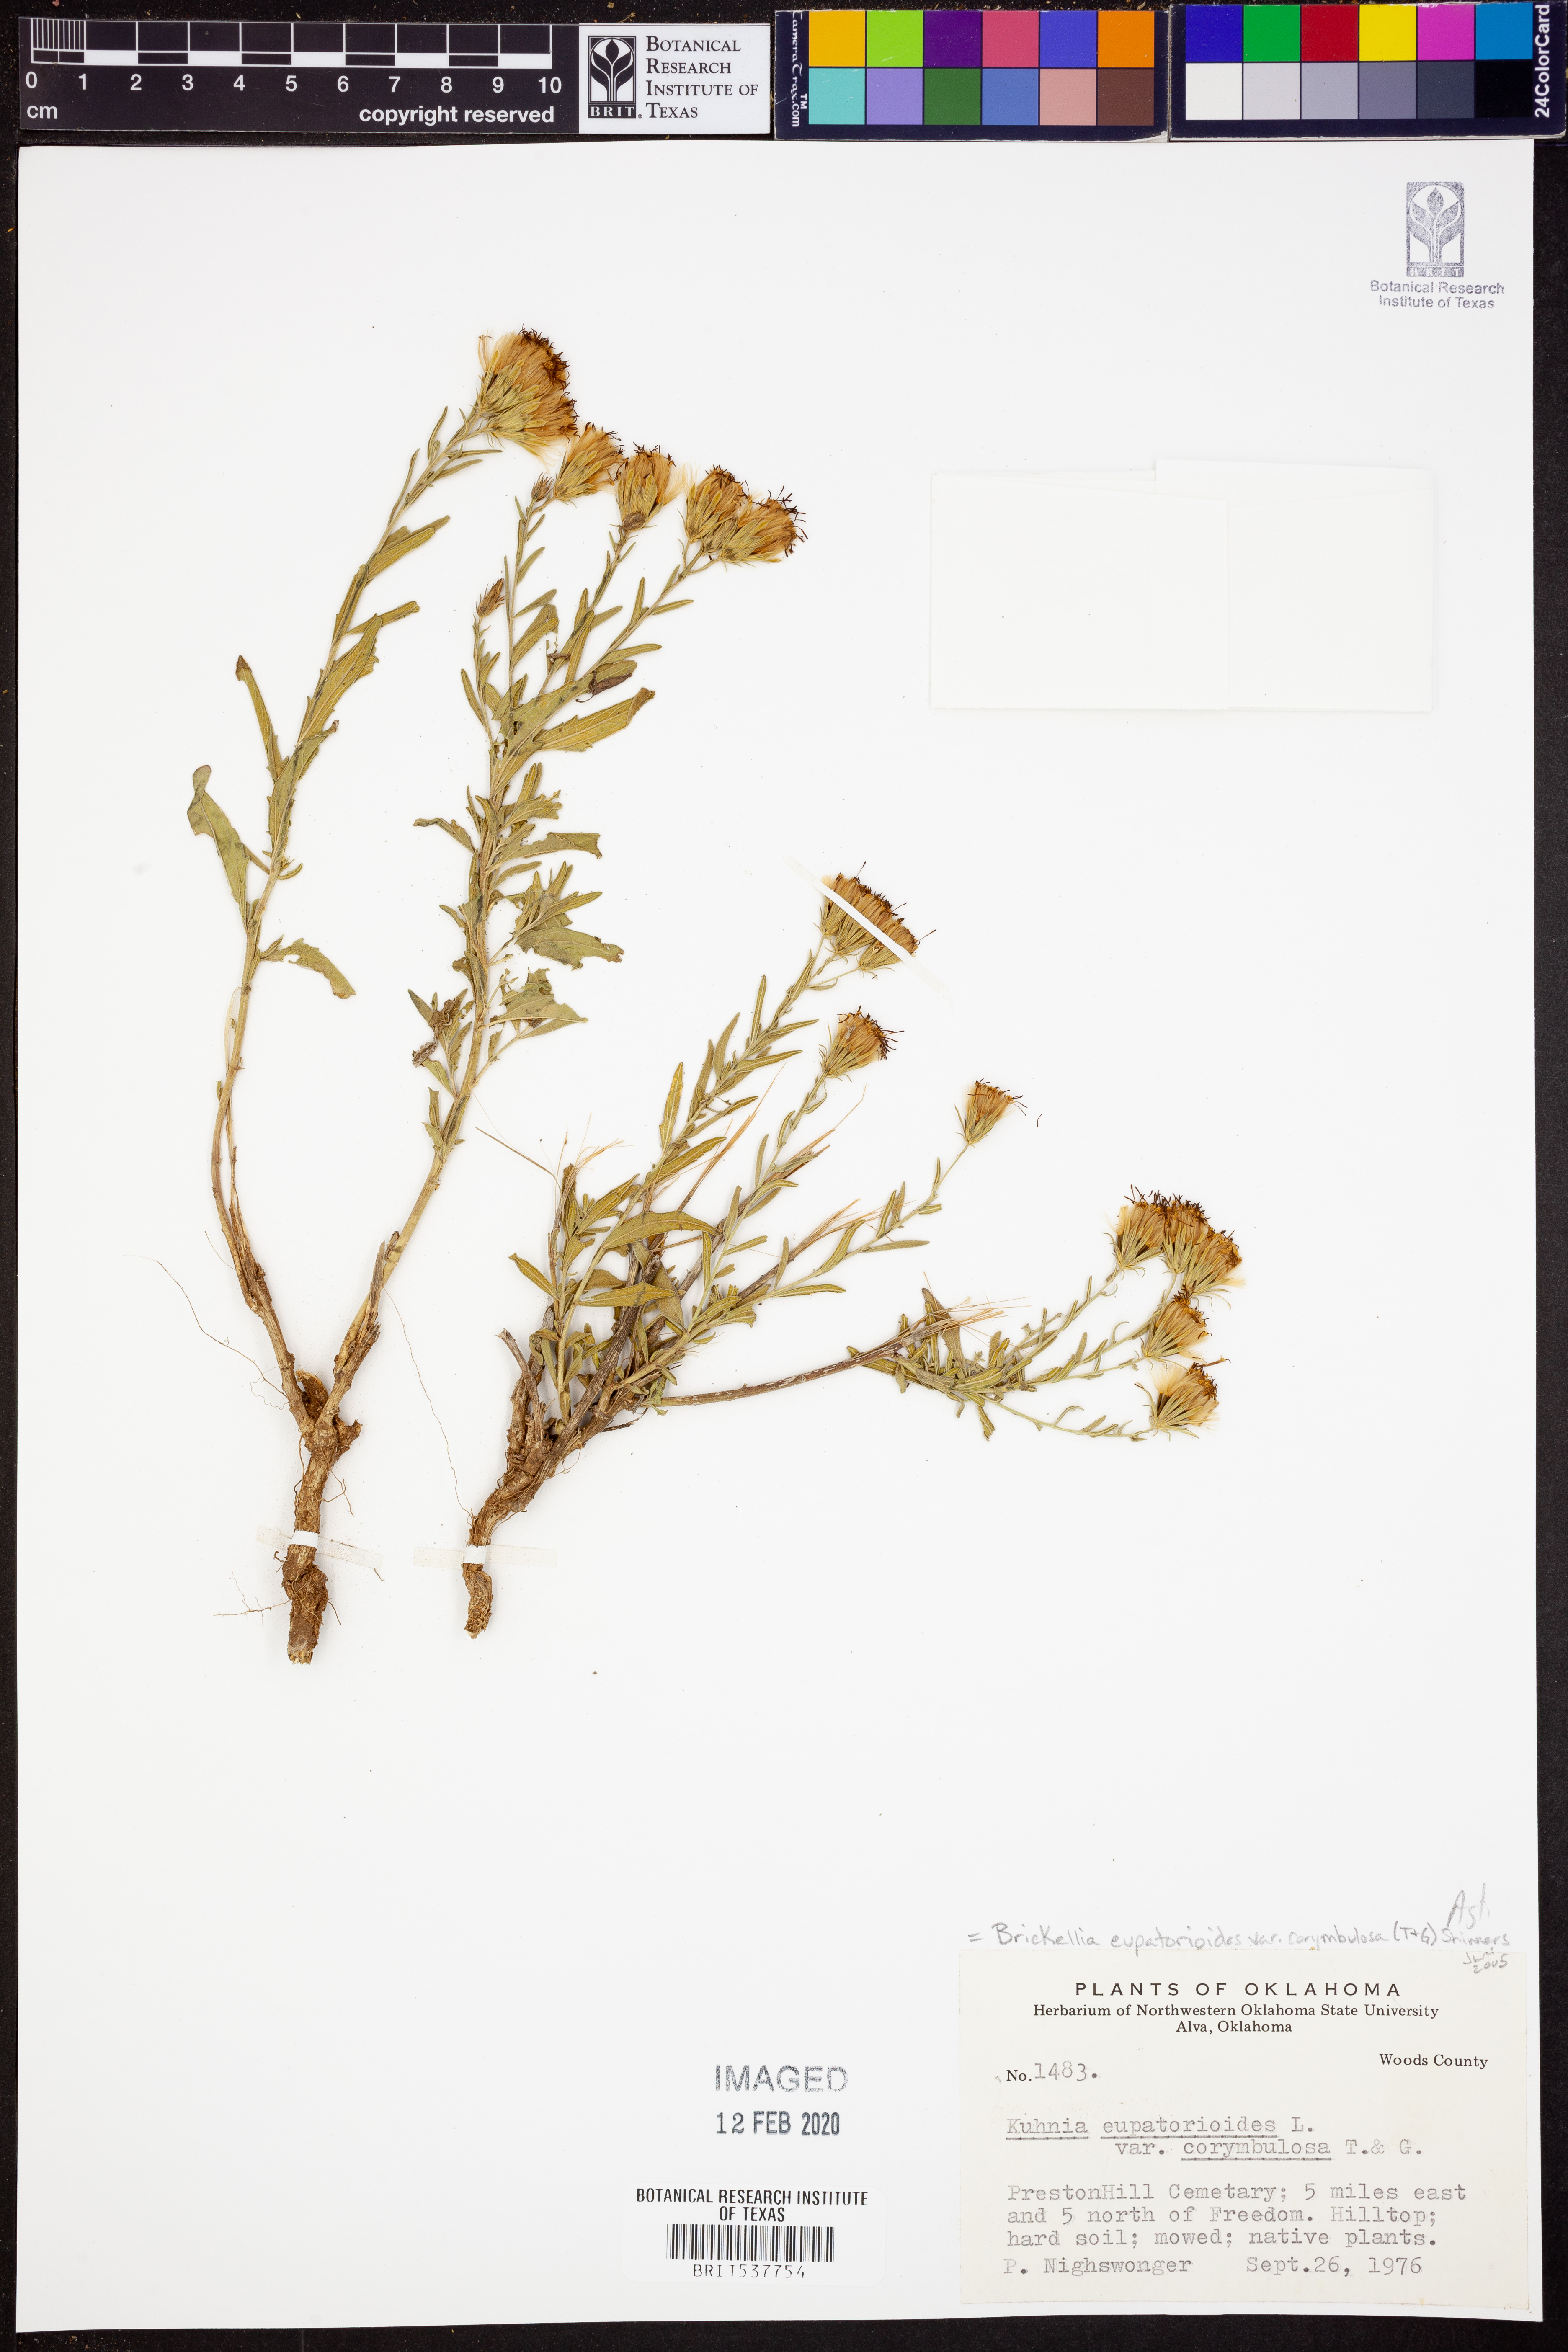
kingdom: Plantae
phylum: Tracheophyta
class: Magnoliopsida
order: Asterales
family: Asteraceae
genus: Brickellia
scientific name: Brickellia suaveolens
